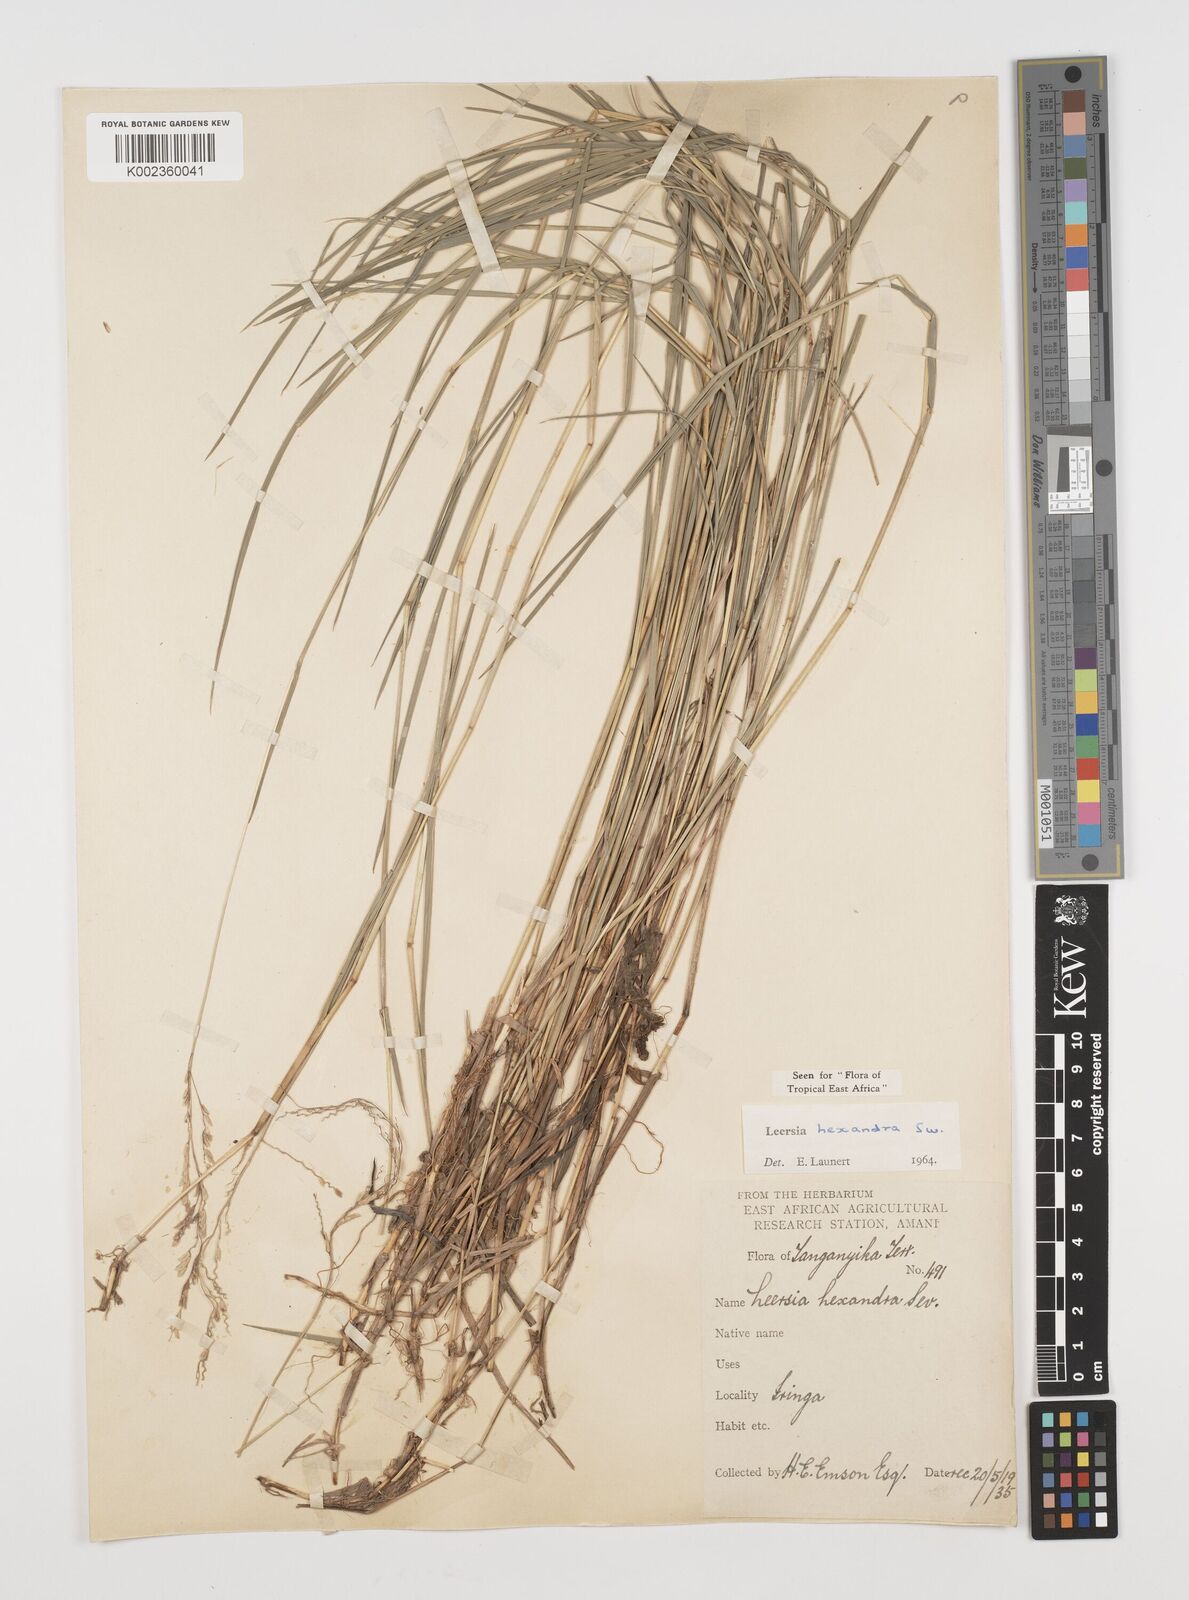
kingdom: Plantae
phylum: Tracheophyta
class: Liliopsida
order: Poales
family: Poaceae
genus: Leersia
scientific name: Leersia hexandra
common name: Southern cut grass
